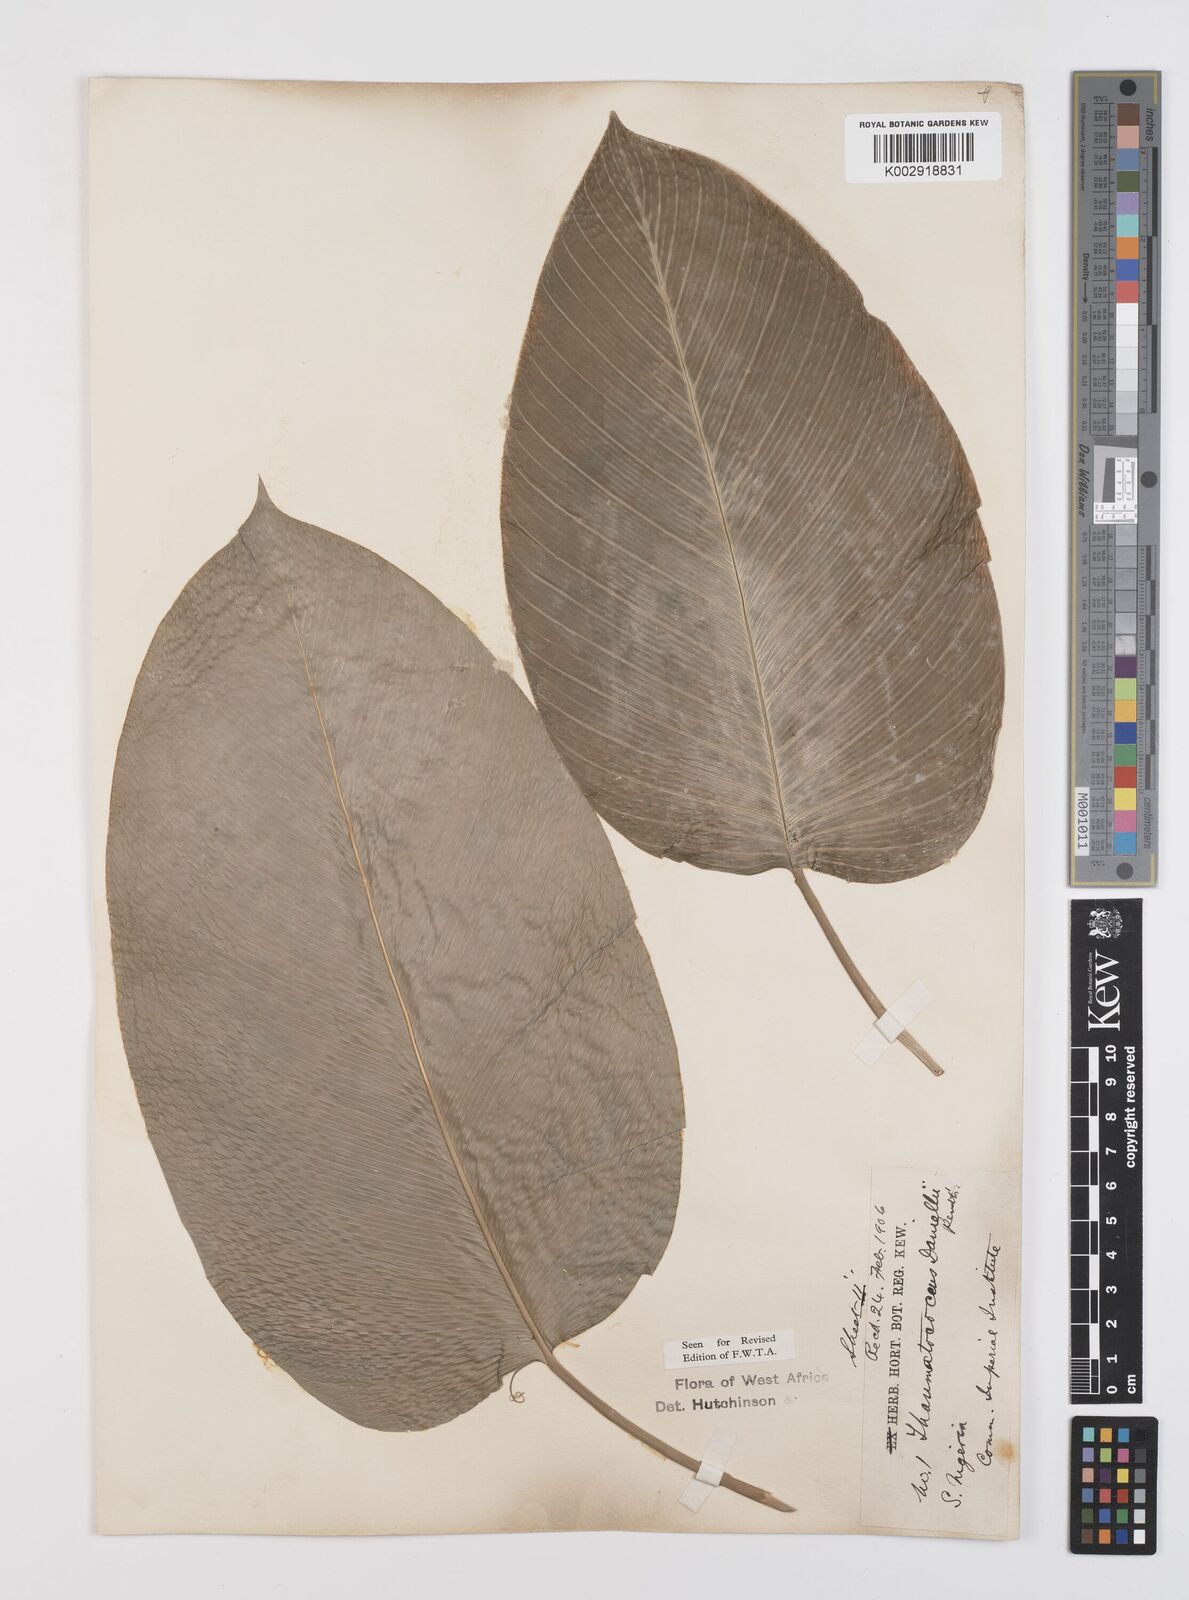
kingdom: Plantae
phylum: Tracheophyta
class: Liliopsida
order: Zingiberales
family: Marantaceae
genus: Thaumatococcus
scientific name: Thaumatococcus daniellii
